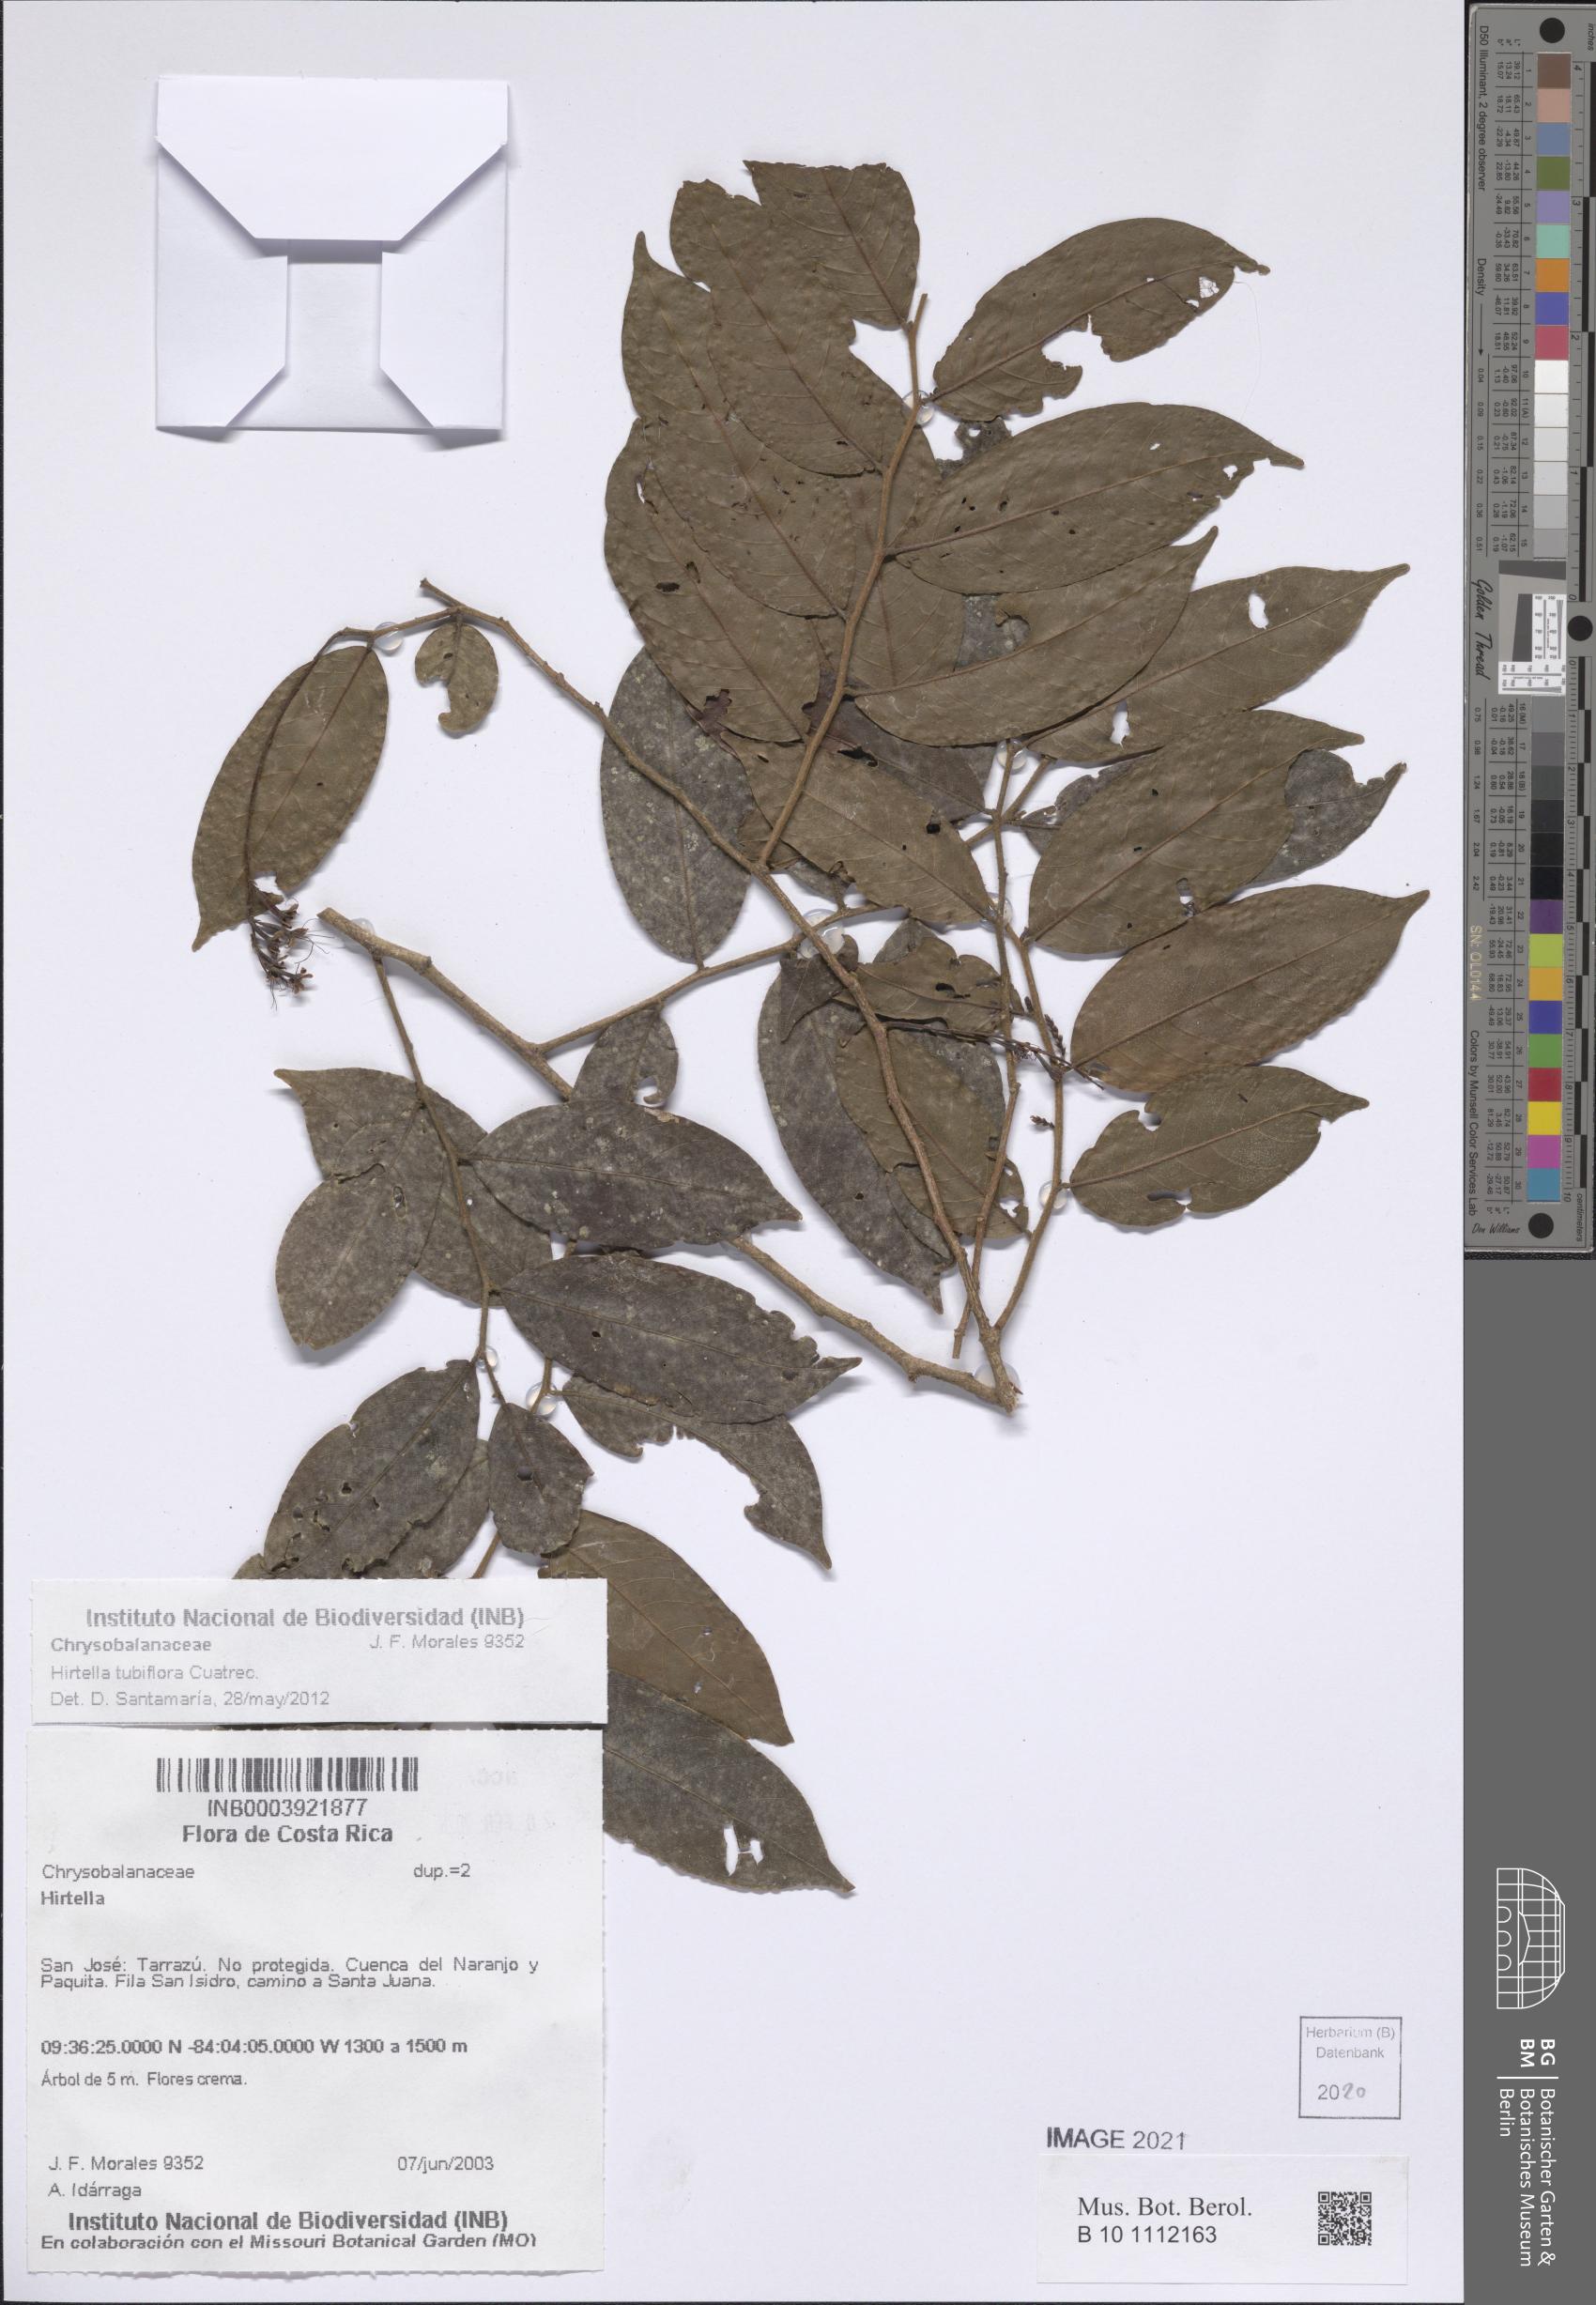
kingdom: Plantae
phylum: Tracheophyta
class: Magnoliopsida
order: Malpighiales
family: Chrysobalanaceae
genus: Hirtella
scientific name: Hirtella tubiflora
